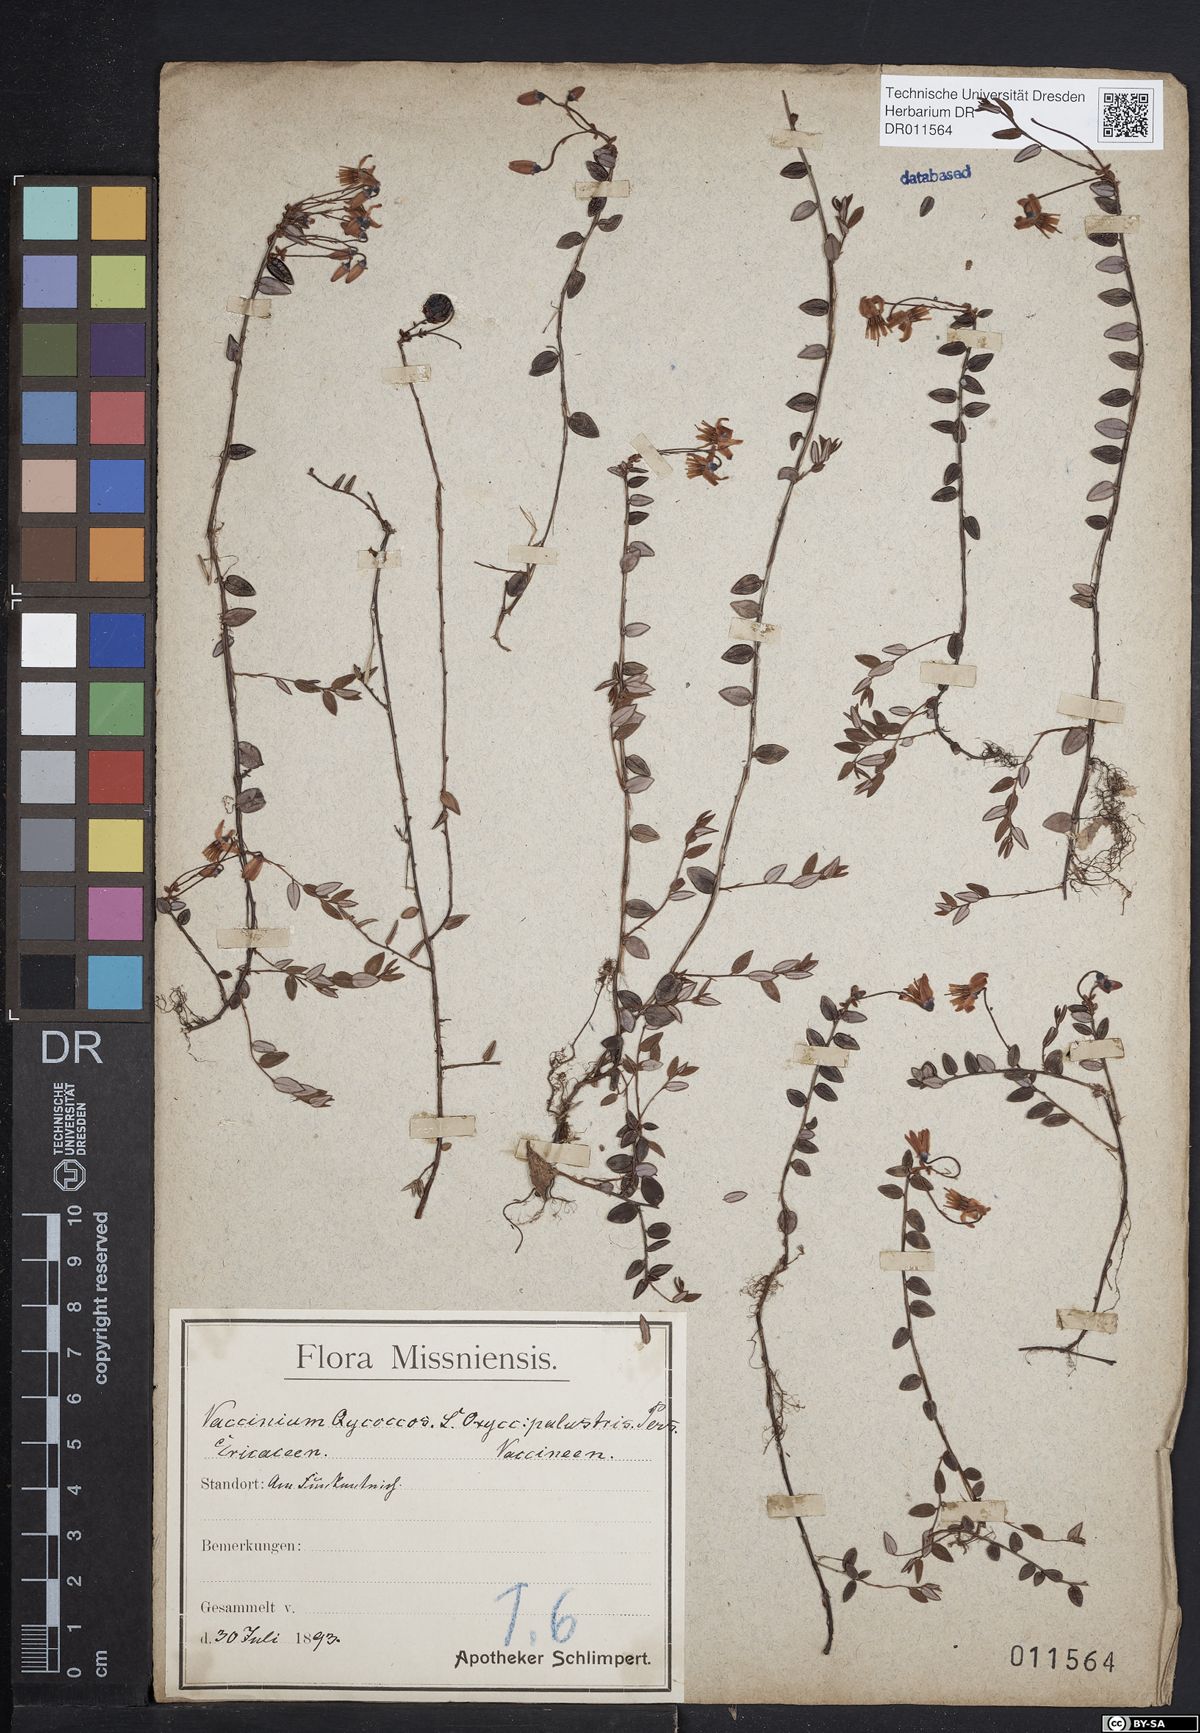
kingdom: Plantae
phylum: Tracheophyta
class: Magnoliopsida
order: Ericales
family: Ericaceae
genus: Vaccinium
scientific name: Vaccinium oxycoccos
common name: Cranberry
